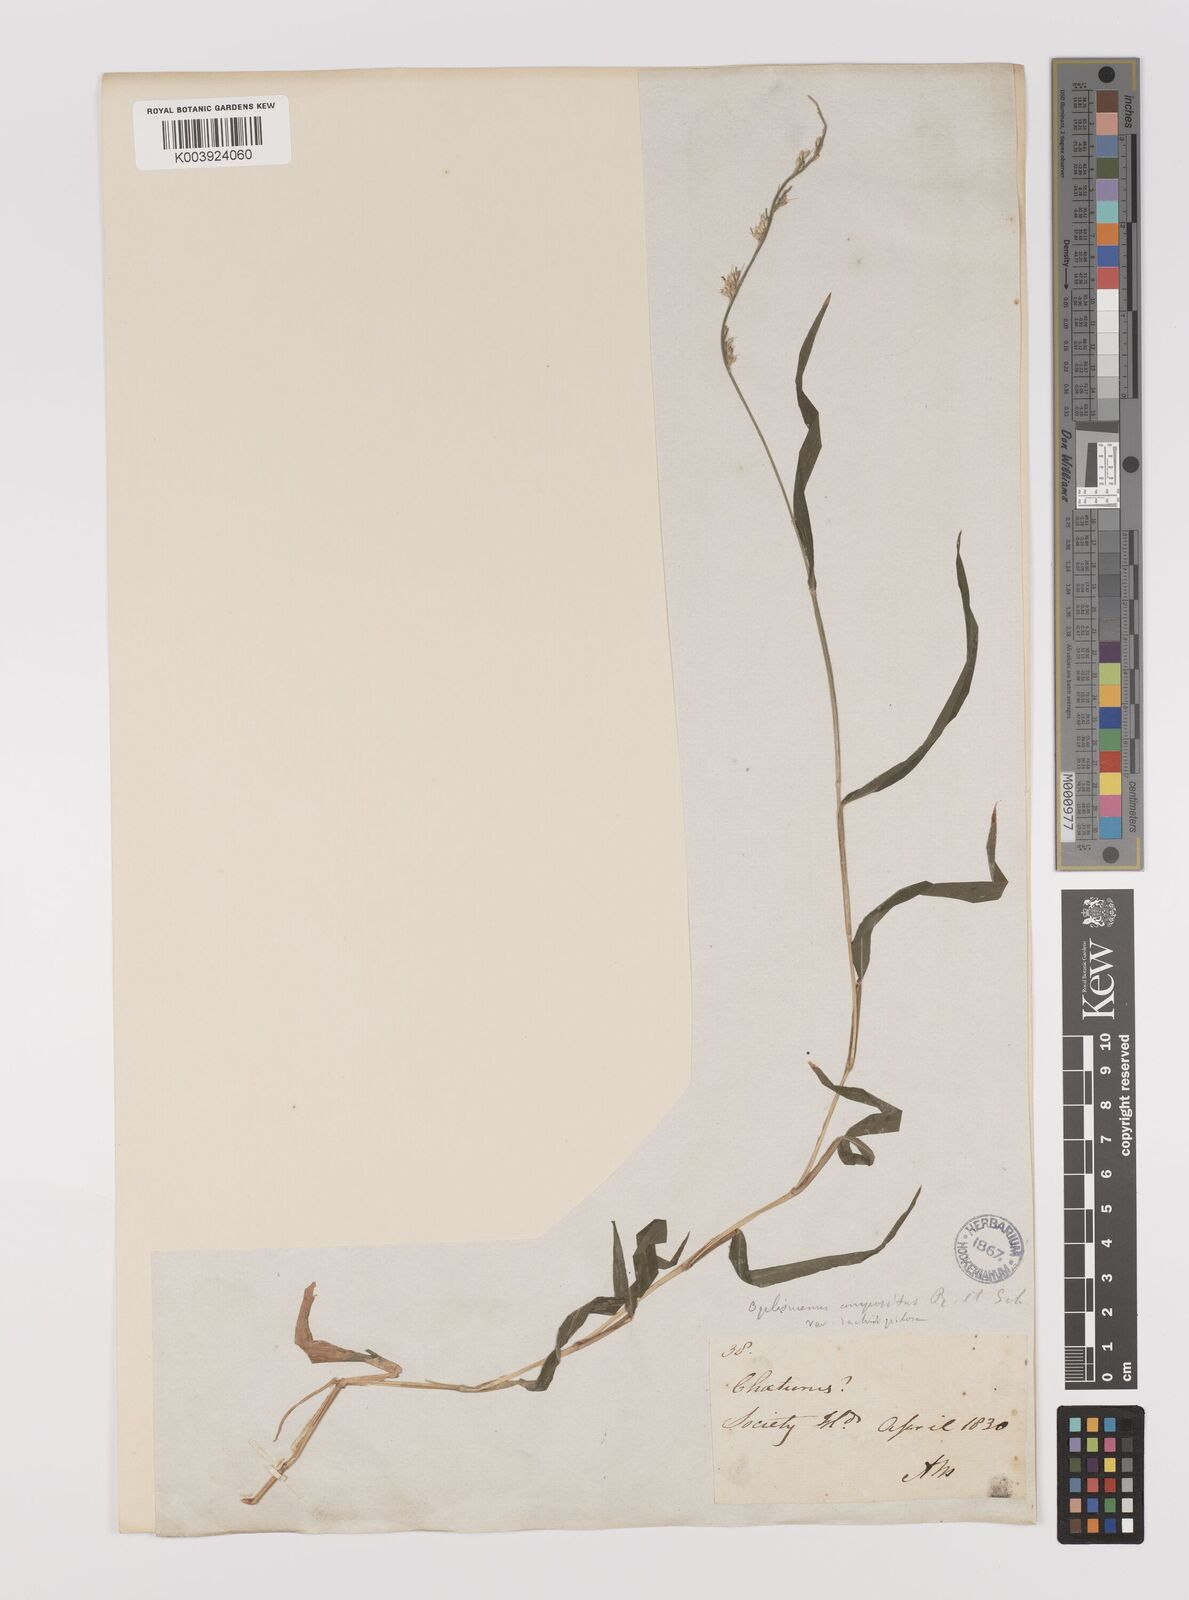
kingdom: Plantae
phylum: Tracheophyta
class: Liliopsida
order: Poales
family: Poaceae
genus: Oplismenus
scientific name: Oplismenus hirtellus
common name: Basketgrass
